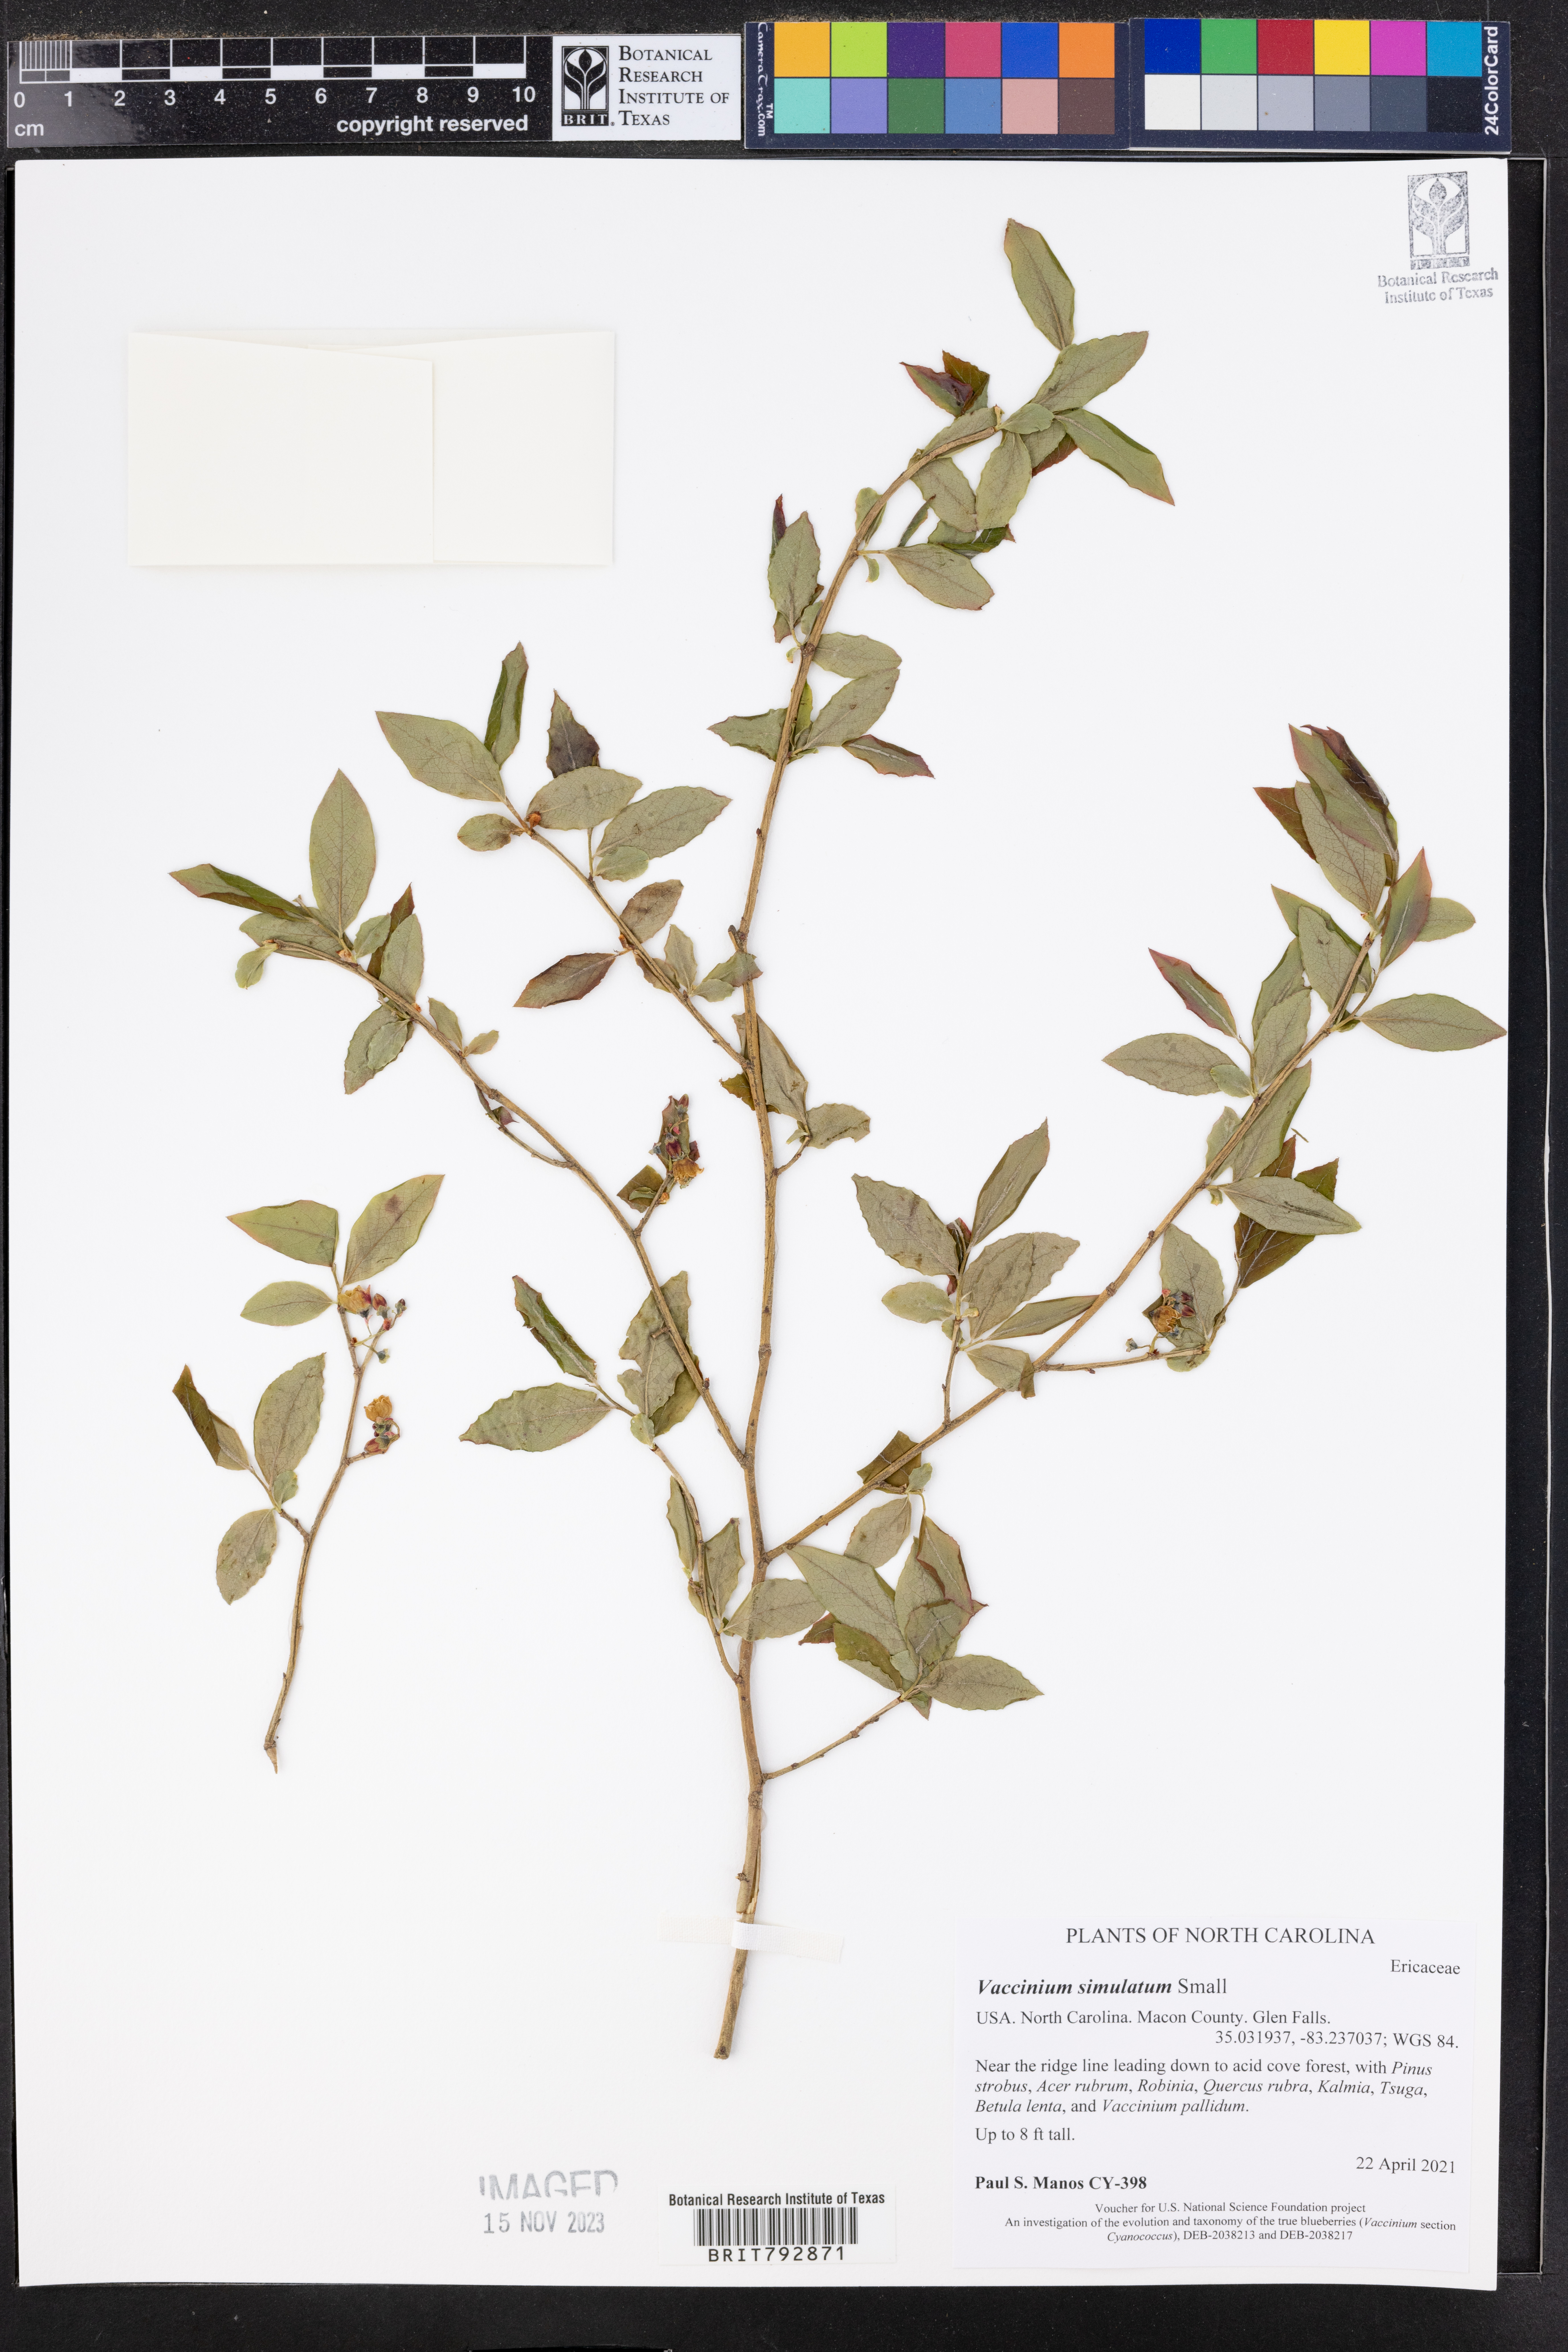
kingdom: Plantae
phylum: Tracheophyta
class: Magnoliopsida
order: Ericales
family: Ericaceae
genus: Vaccinium
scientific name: Vaccinium corymbosum
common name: Blueberry
